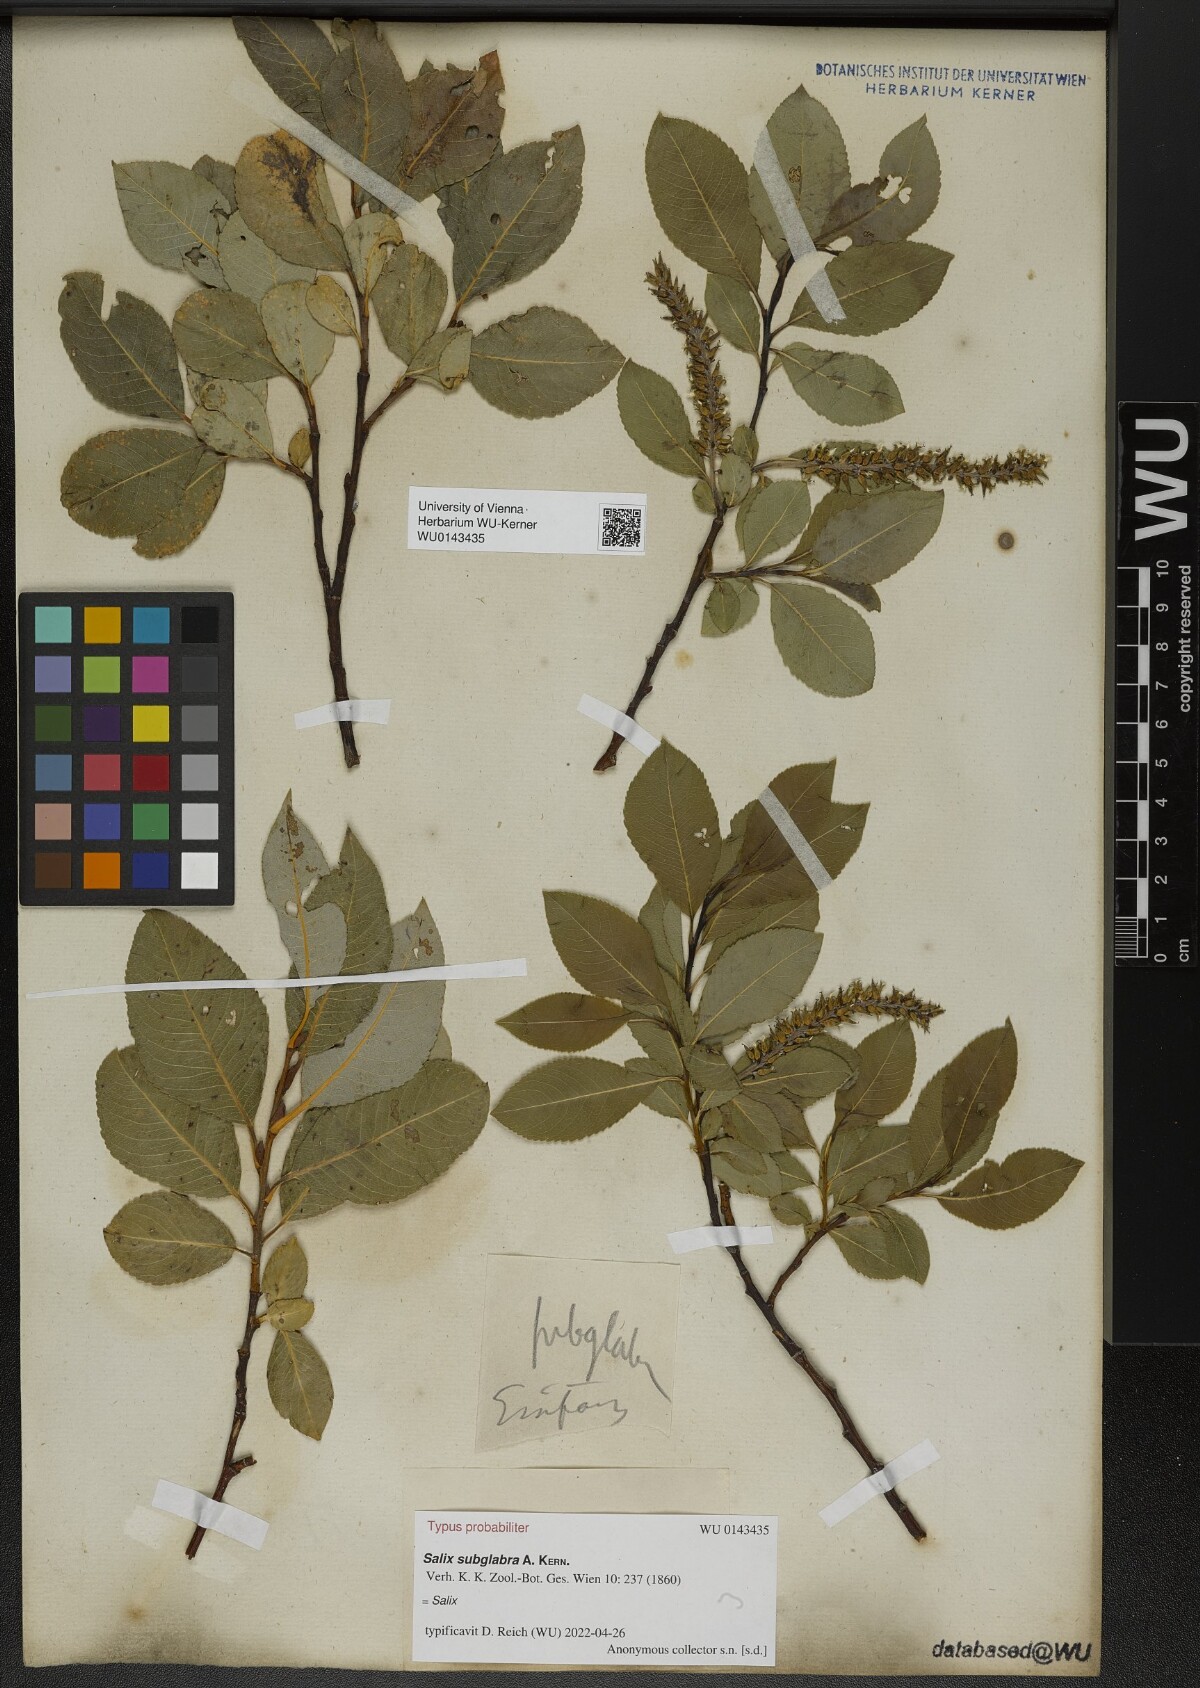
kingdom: Plantae
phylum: Tracheophyta
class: Magnoliopsida
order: Malpighiales
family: Salicaceae
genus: Salix
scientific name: Salix subglabra
